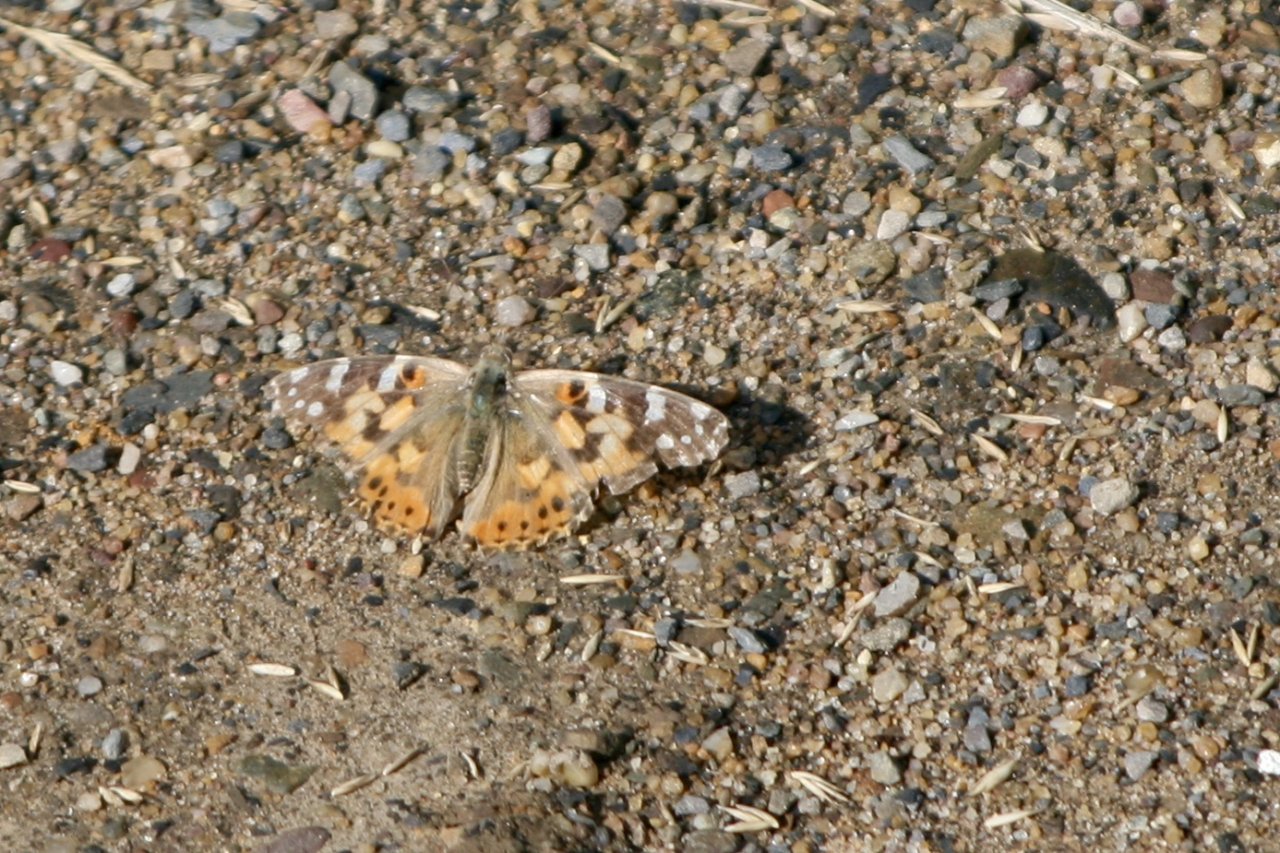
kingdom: Animalia
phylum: Arthropoda
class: Insecta
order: Lepidoptera
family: Nymphalidae
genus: Vanessa
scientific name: Vanessa cardui
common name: Painted Lady
